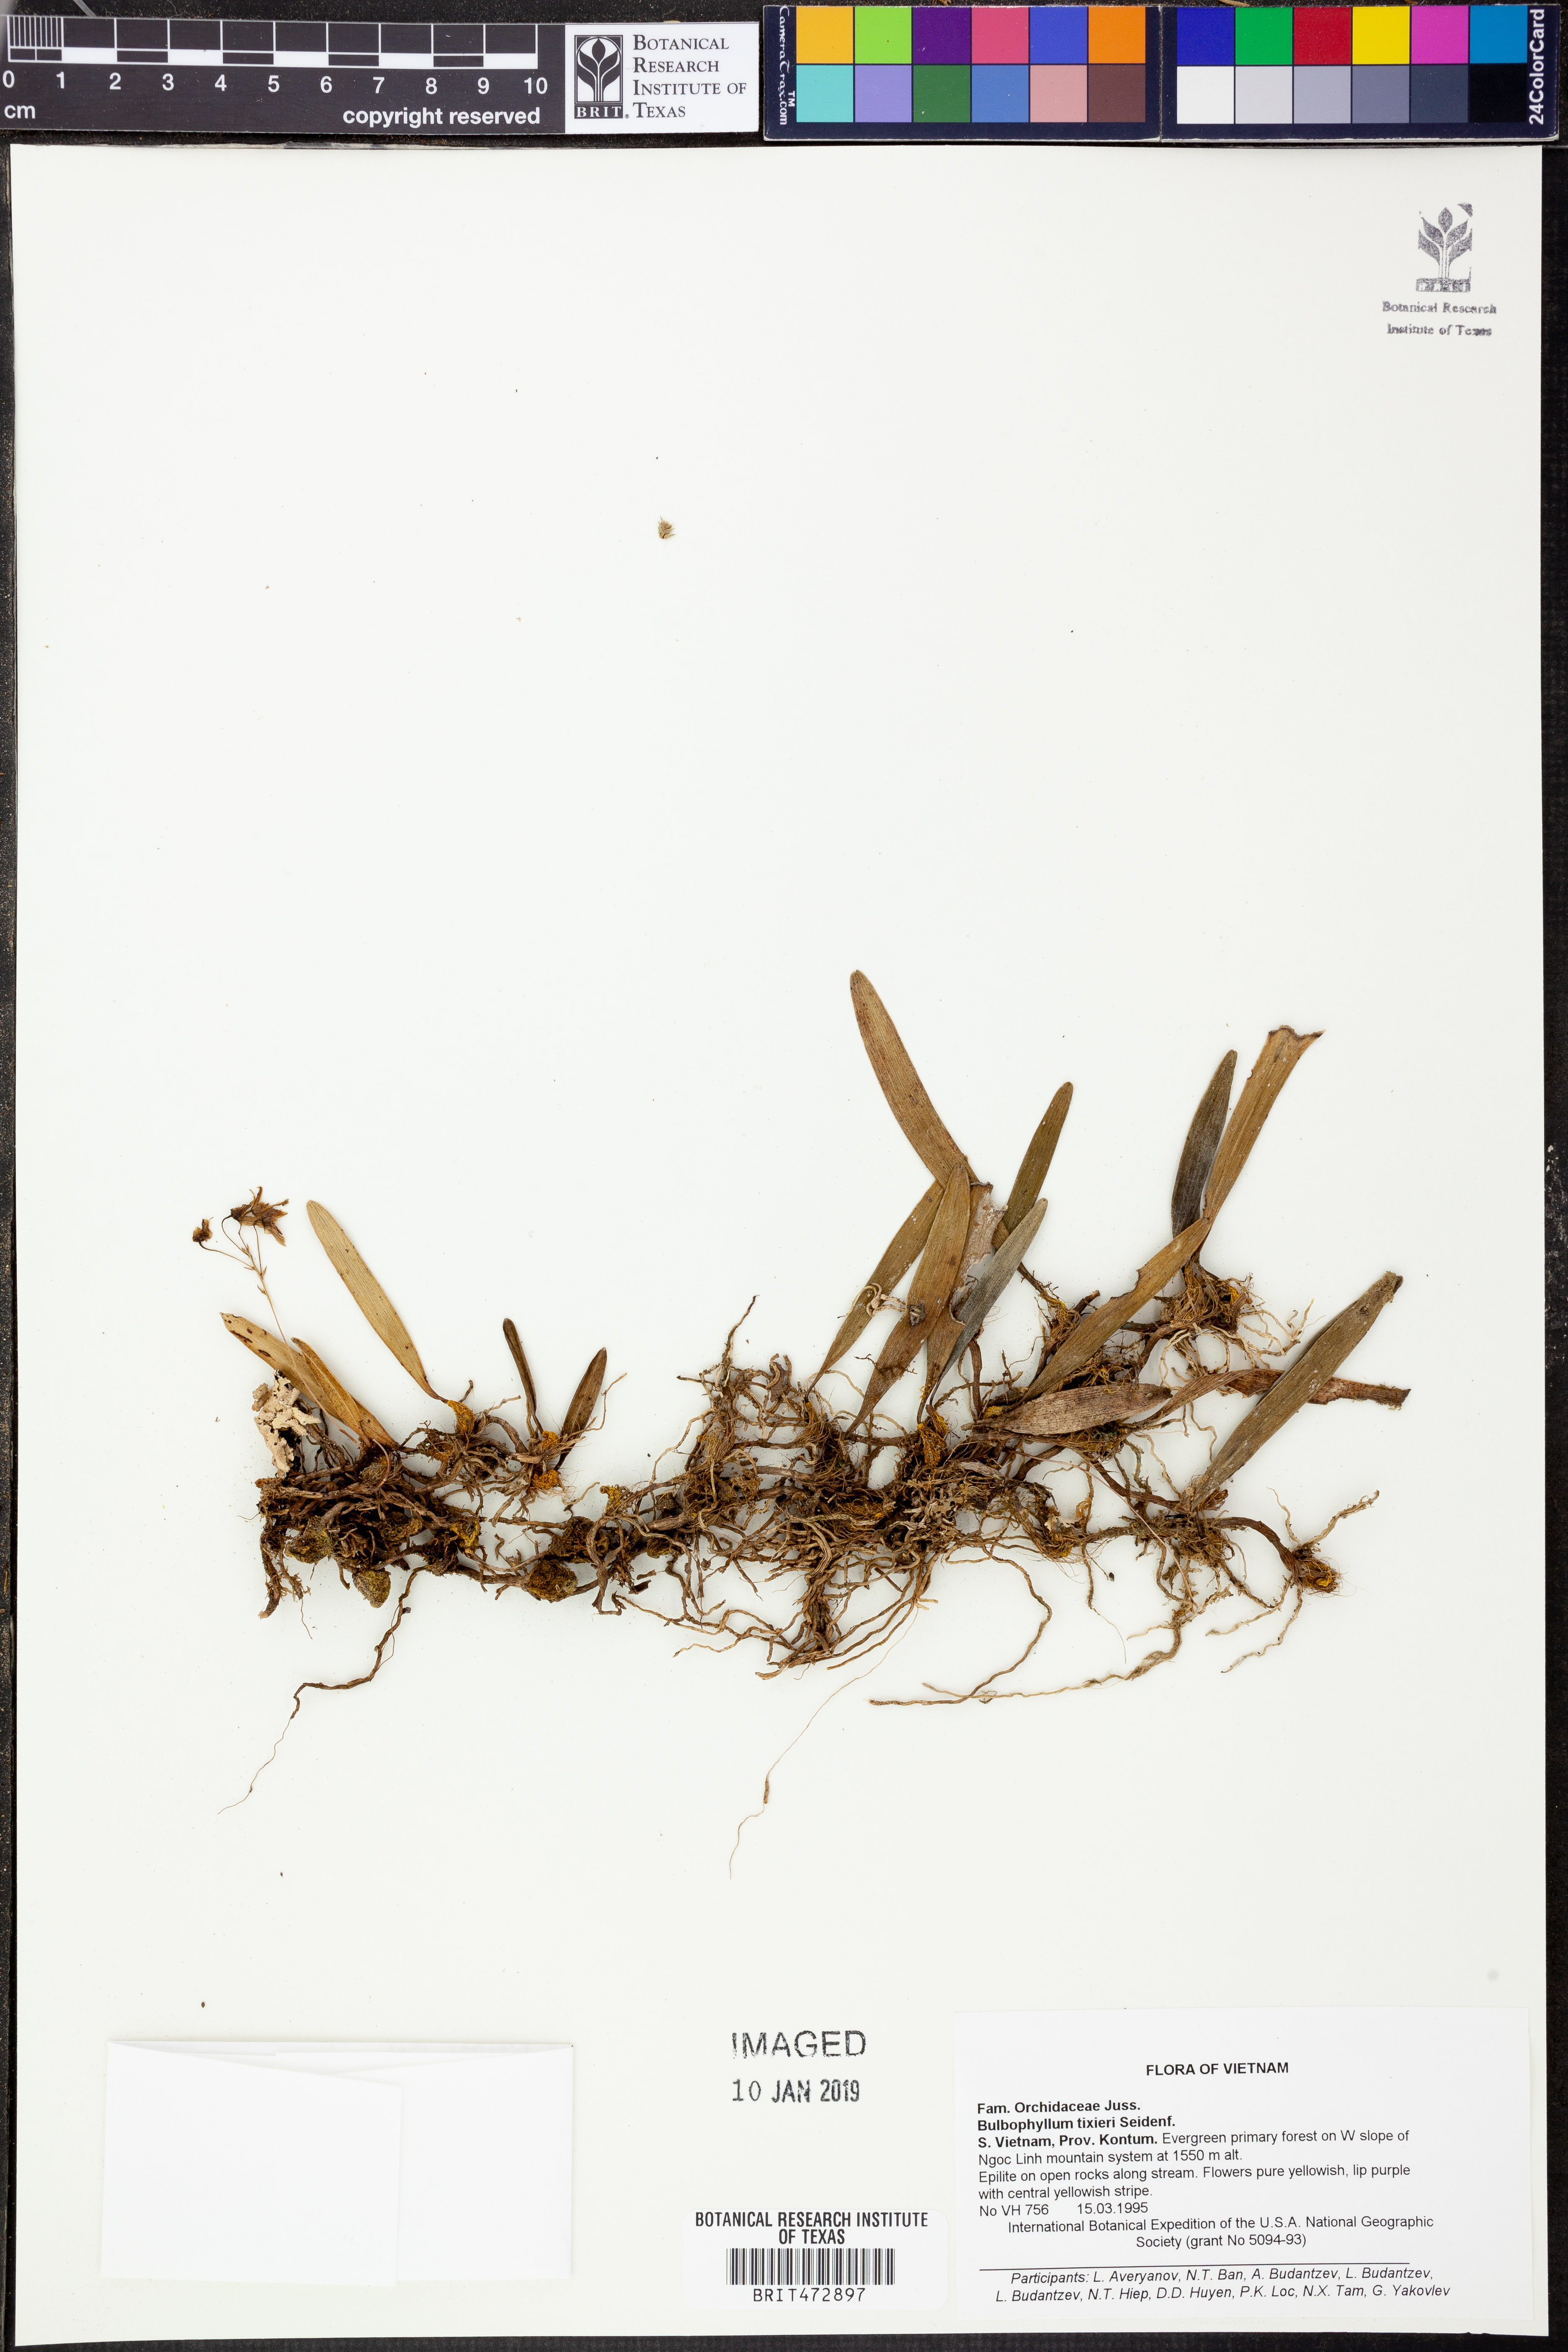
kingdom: Plantae
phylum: Tracheophyta
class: Liliopsida
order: Asparagales
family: Orchidaceae
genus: Bulbophyllum
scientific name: Bulbophyllum tixieri
